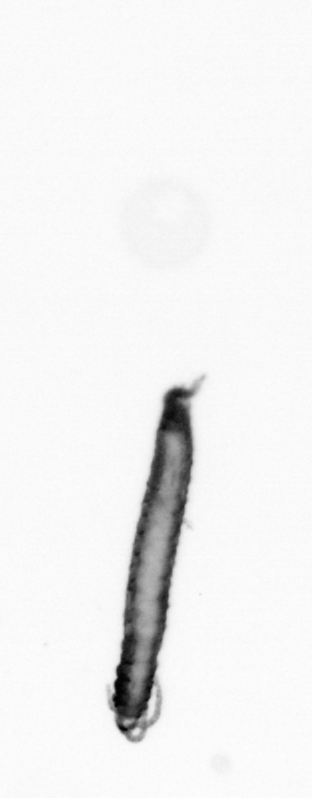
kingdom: Animalia
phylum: Annelida
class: Polychaeta
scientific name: Polychaeta
